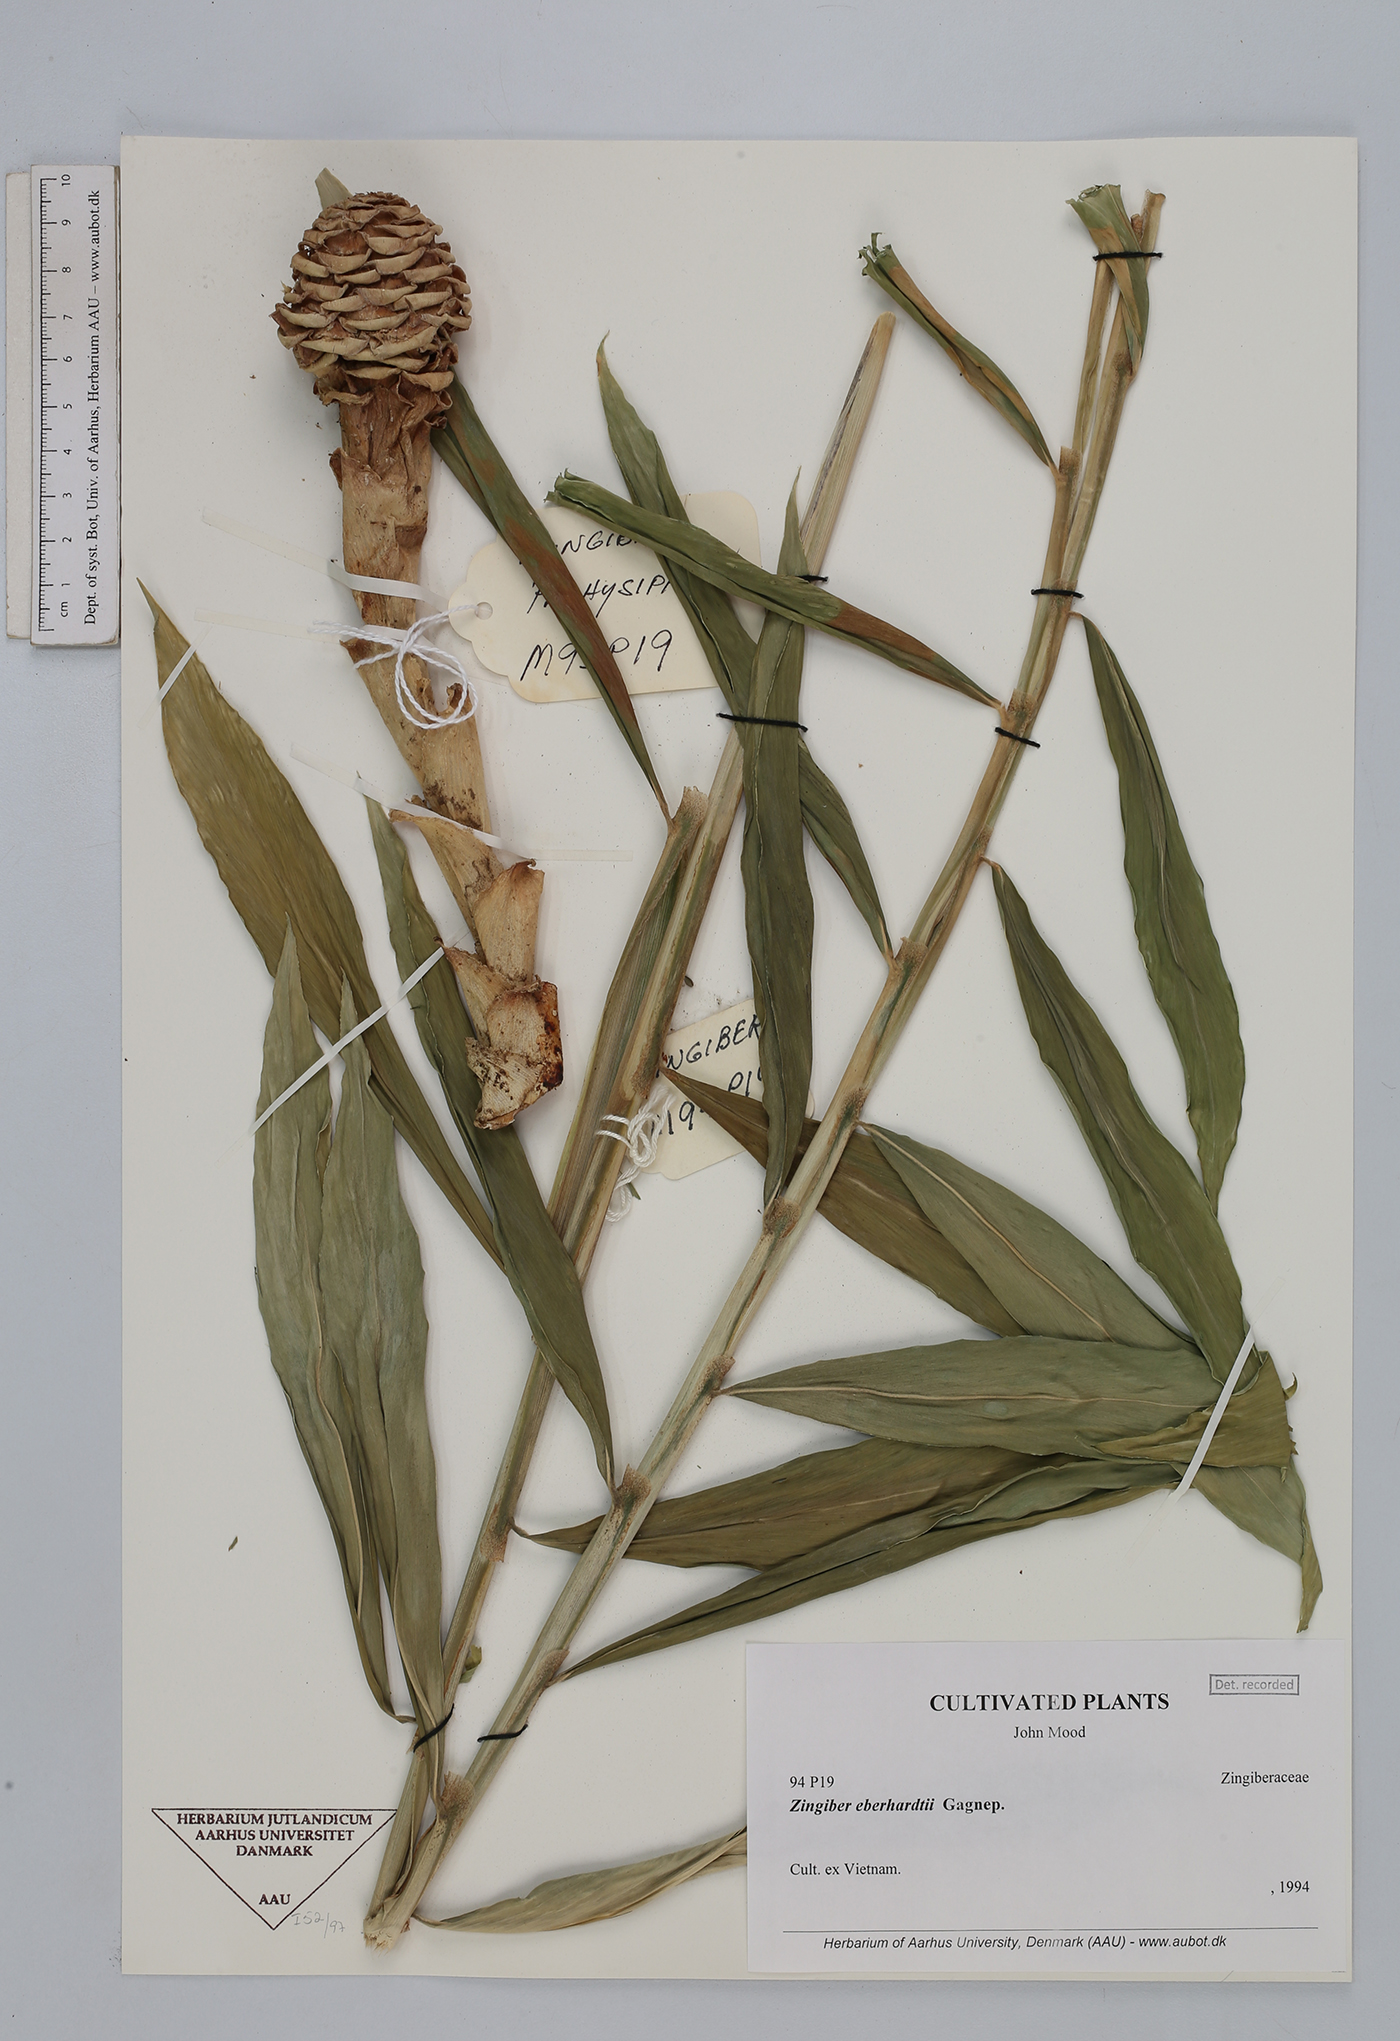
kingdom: Plantae
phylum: Tracheophyta
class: Liliopsida
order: Zingiberales
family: Zingiberaceae
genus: Zingiber
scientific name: Zingiber eberhardtii
